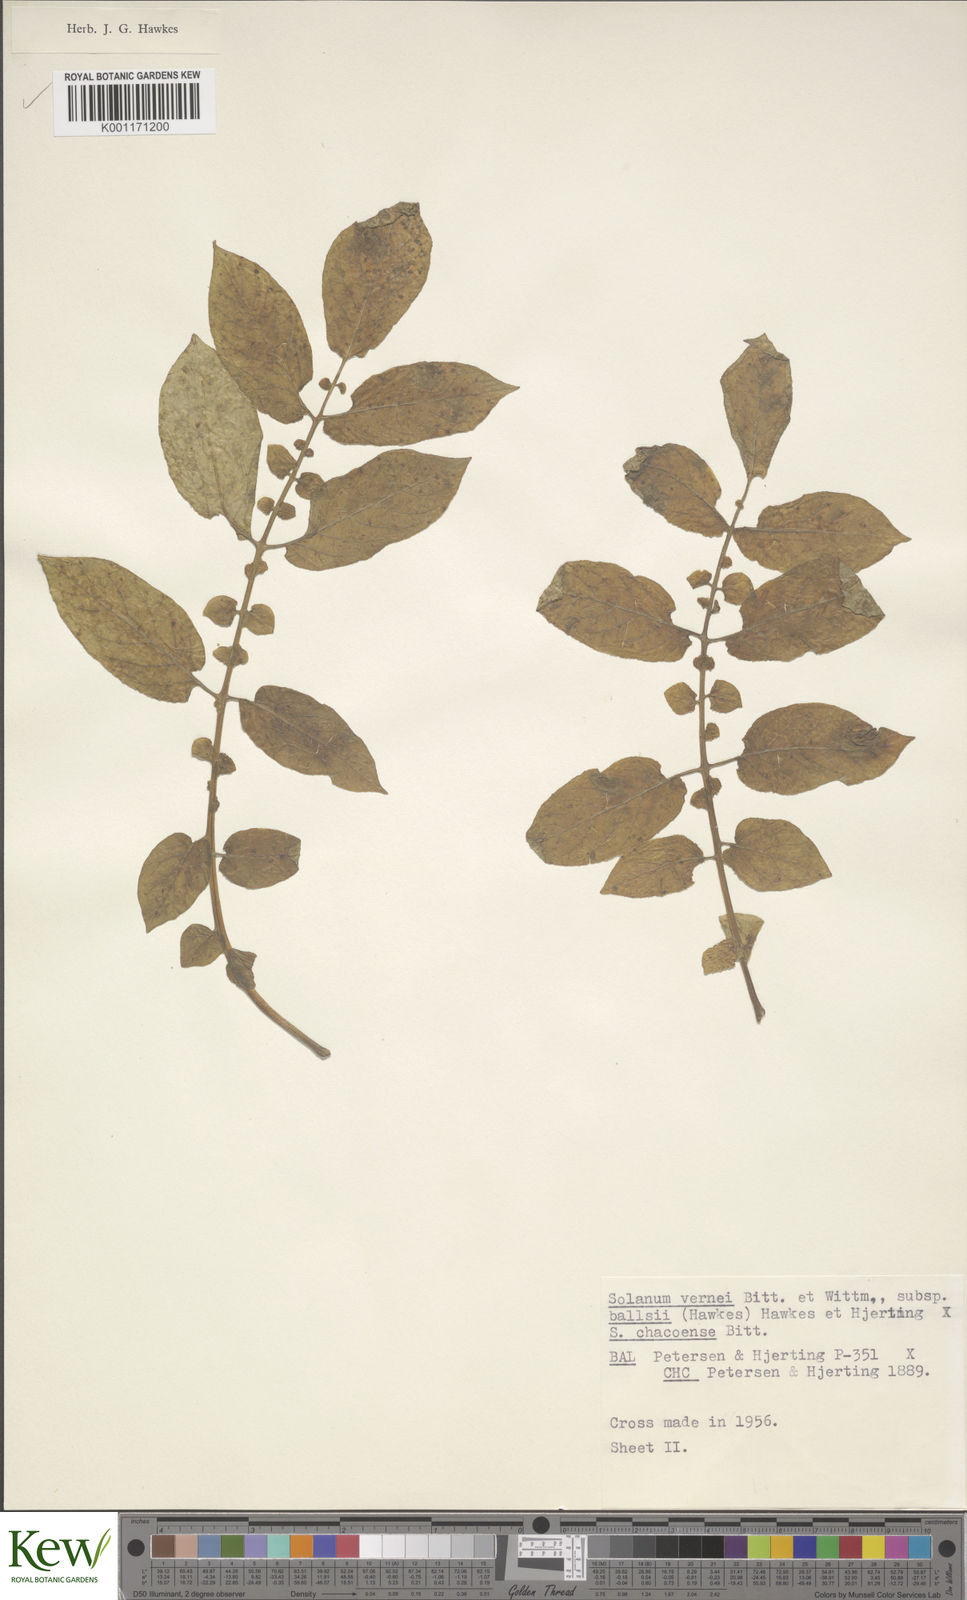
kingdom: Plantae
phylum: Tracheophyta
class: Magnoliopsida
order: Solanales
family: Solanaceae
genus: Solanum
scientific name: Solanum vernei
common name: Purple potato
